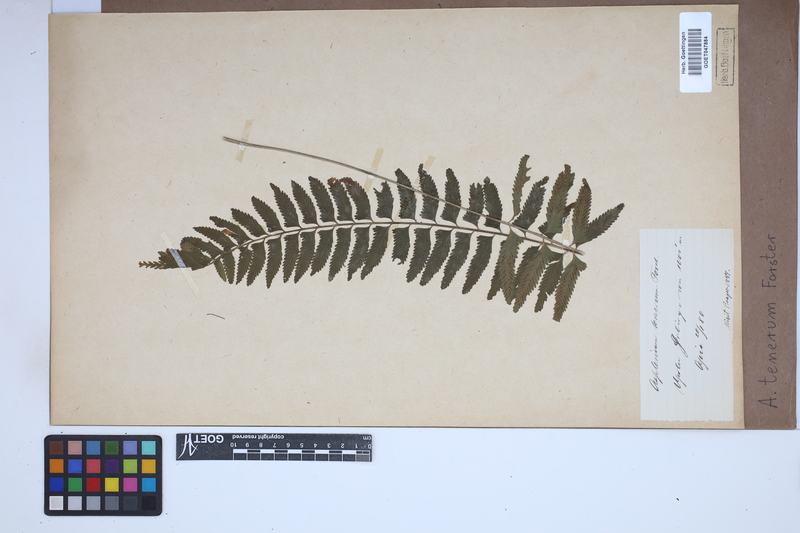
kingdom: Plantae
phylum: Tracheophyta
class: Polypodiopsida
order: Polypodiales
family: Aspleniaceae
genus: Asplenium
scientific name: Asplenium tenerum
